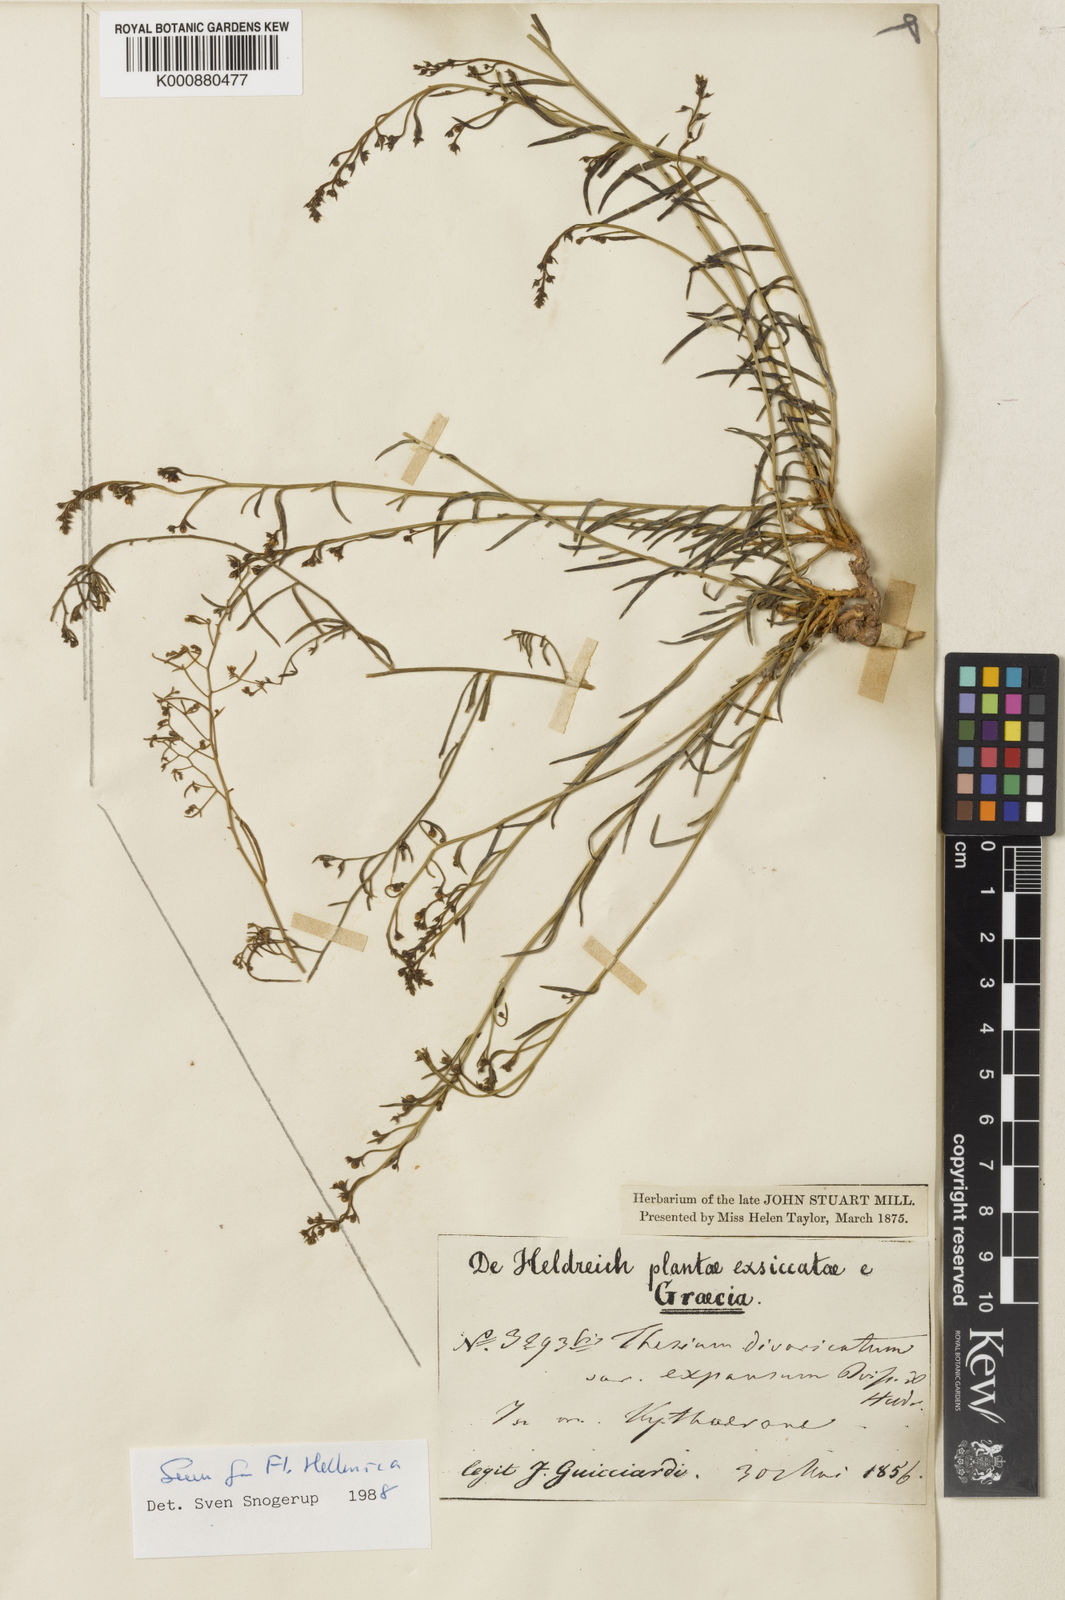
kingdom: Plantae
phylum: Tracheophyta
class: Magnoliopsida
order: Santalales
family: Thesiaceae
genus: Thesium
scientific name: Thesium divaricatum
